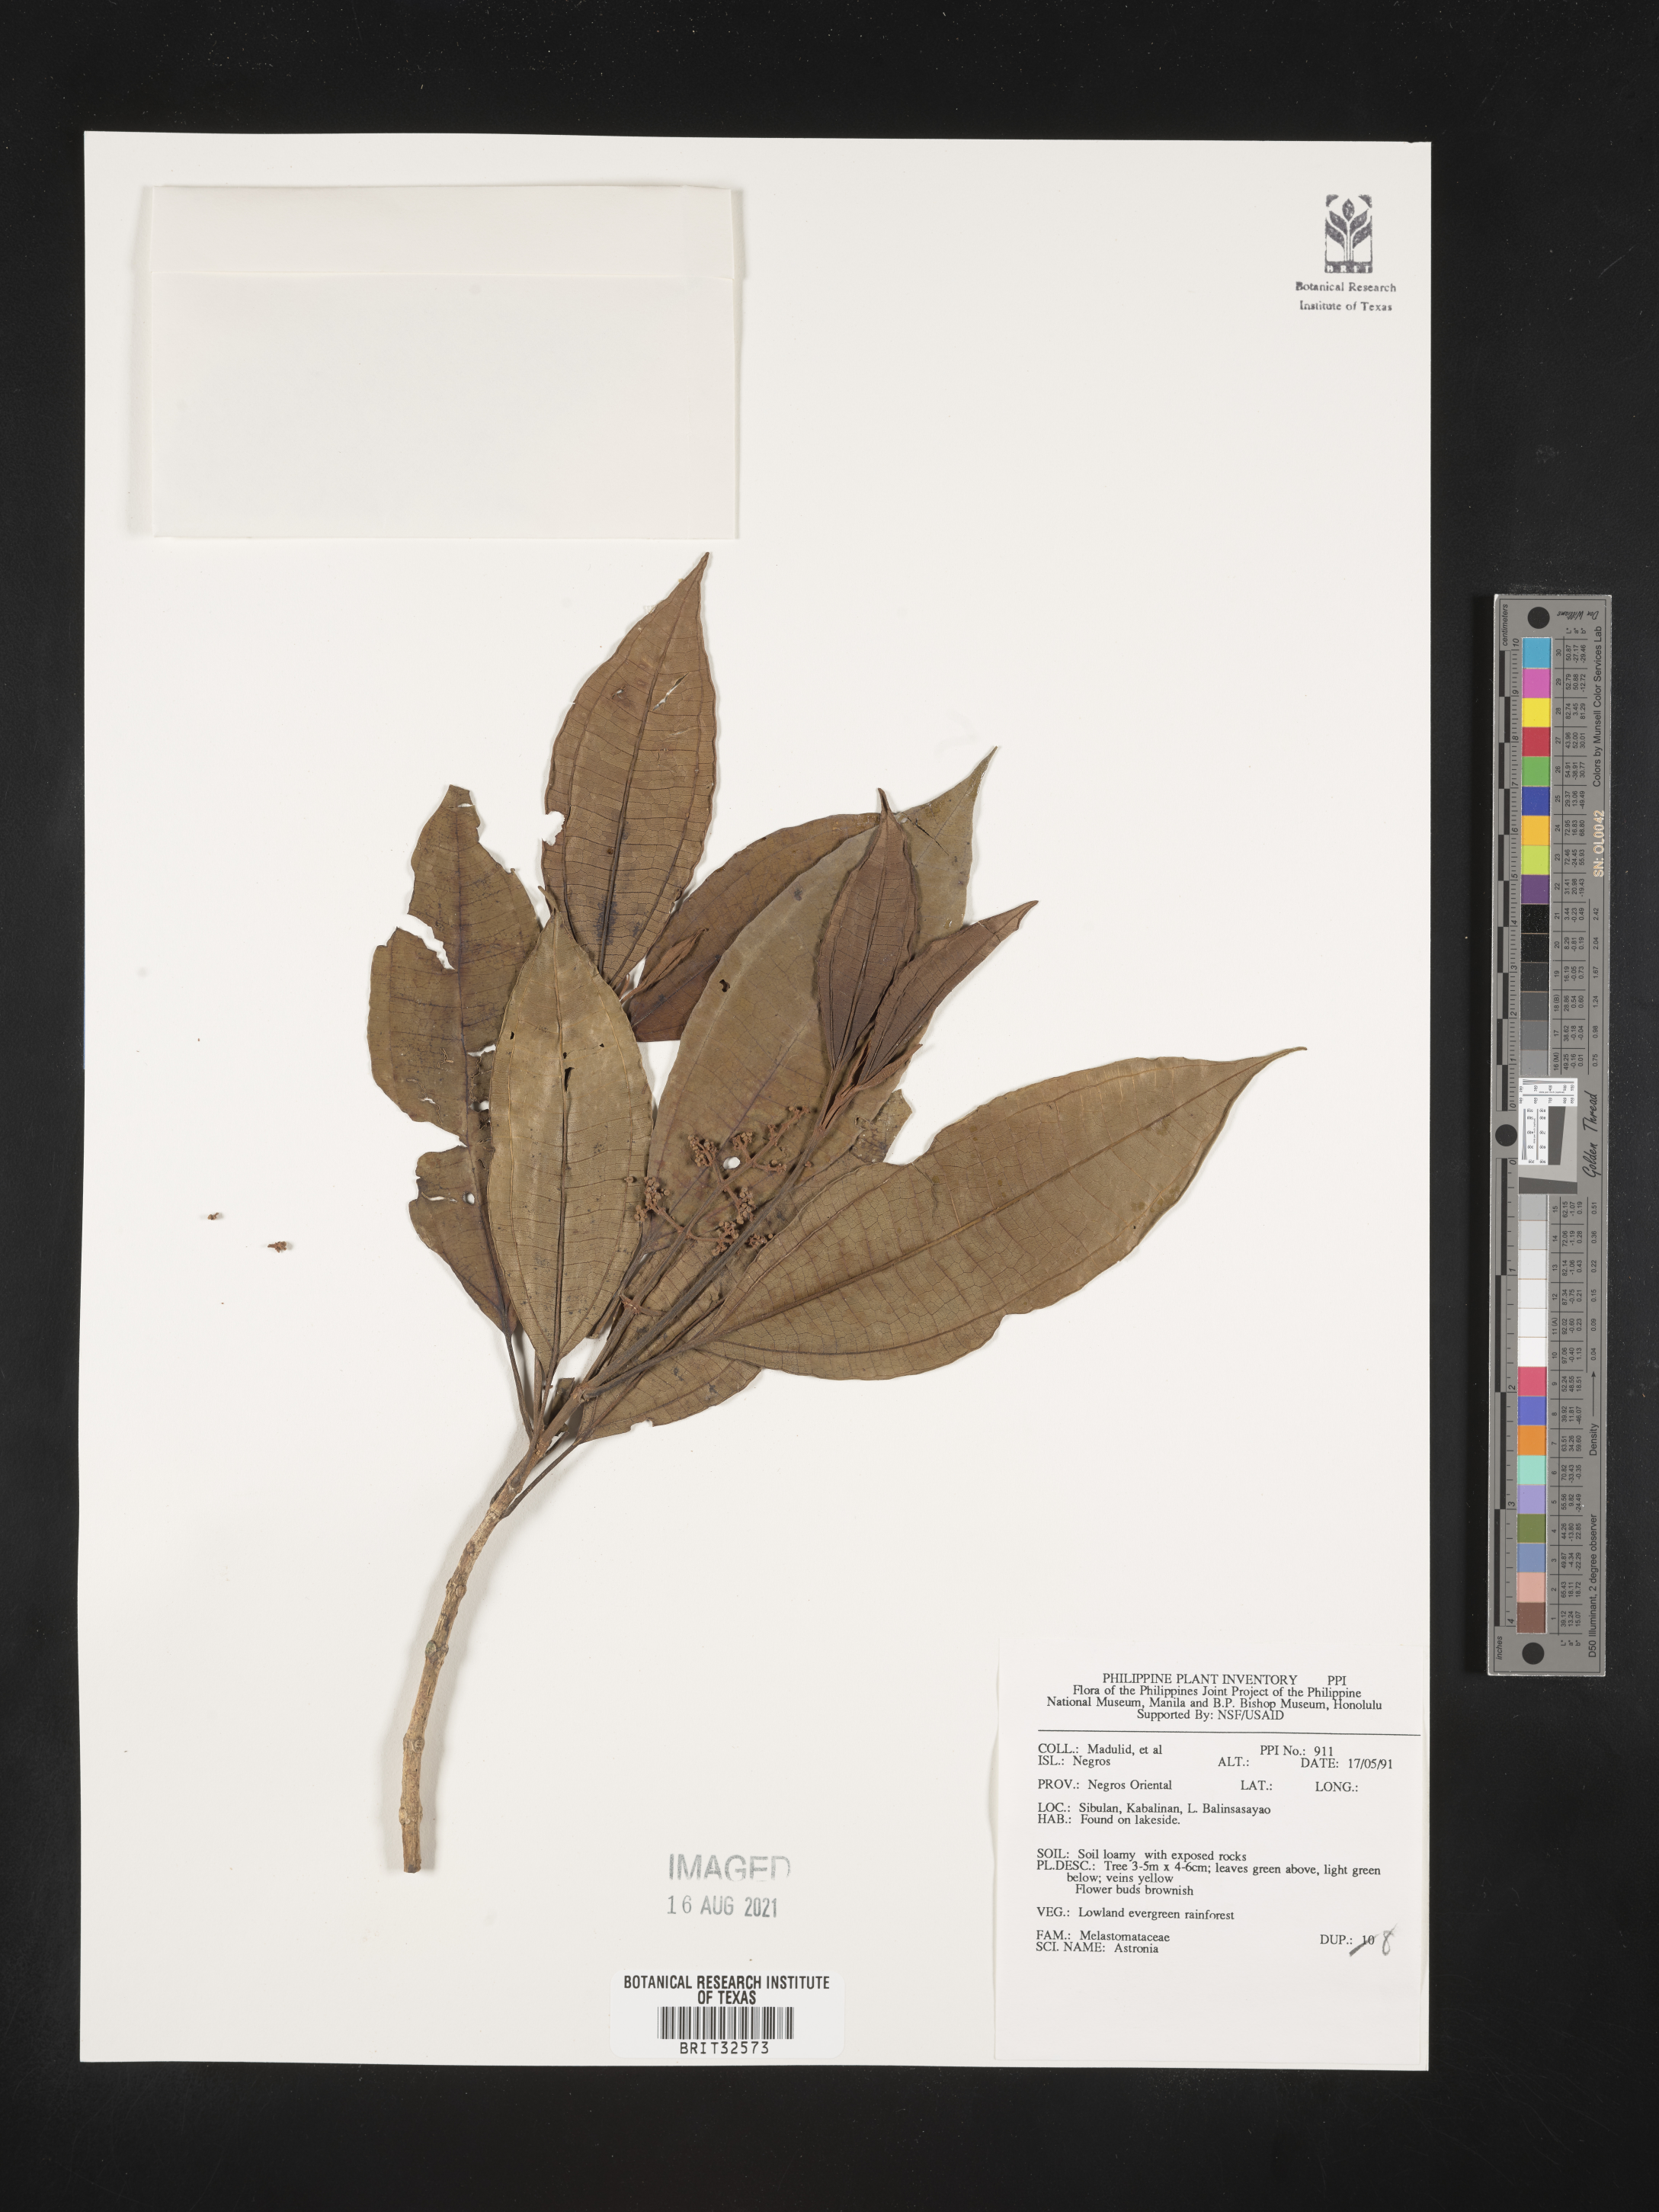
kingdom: Plantae
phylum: Tracheophyta
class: Magnoliopsida
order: Myrtales
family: Melastomataceae
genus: Astronia
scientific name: Astronia
